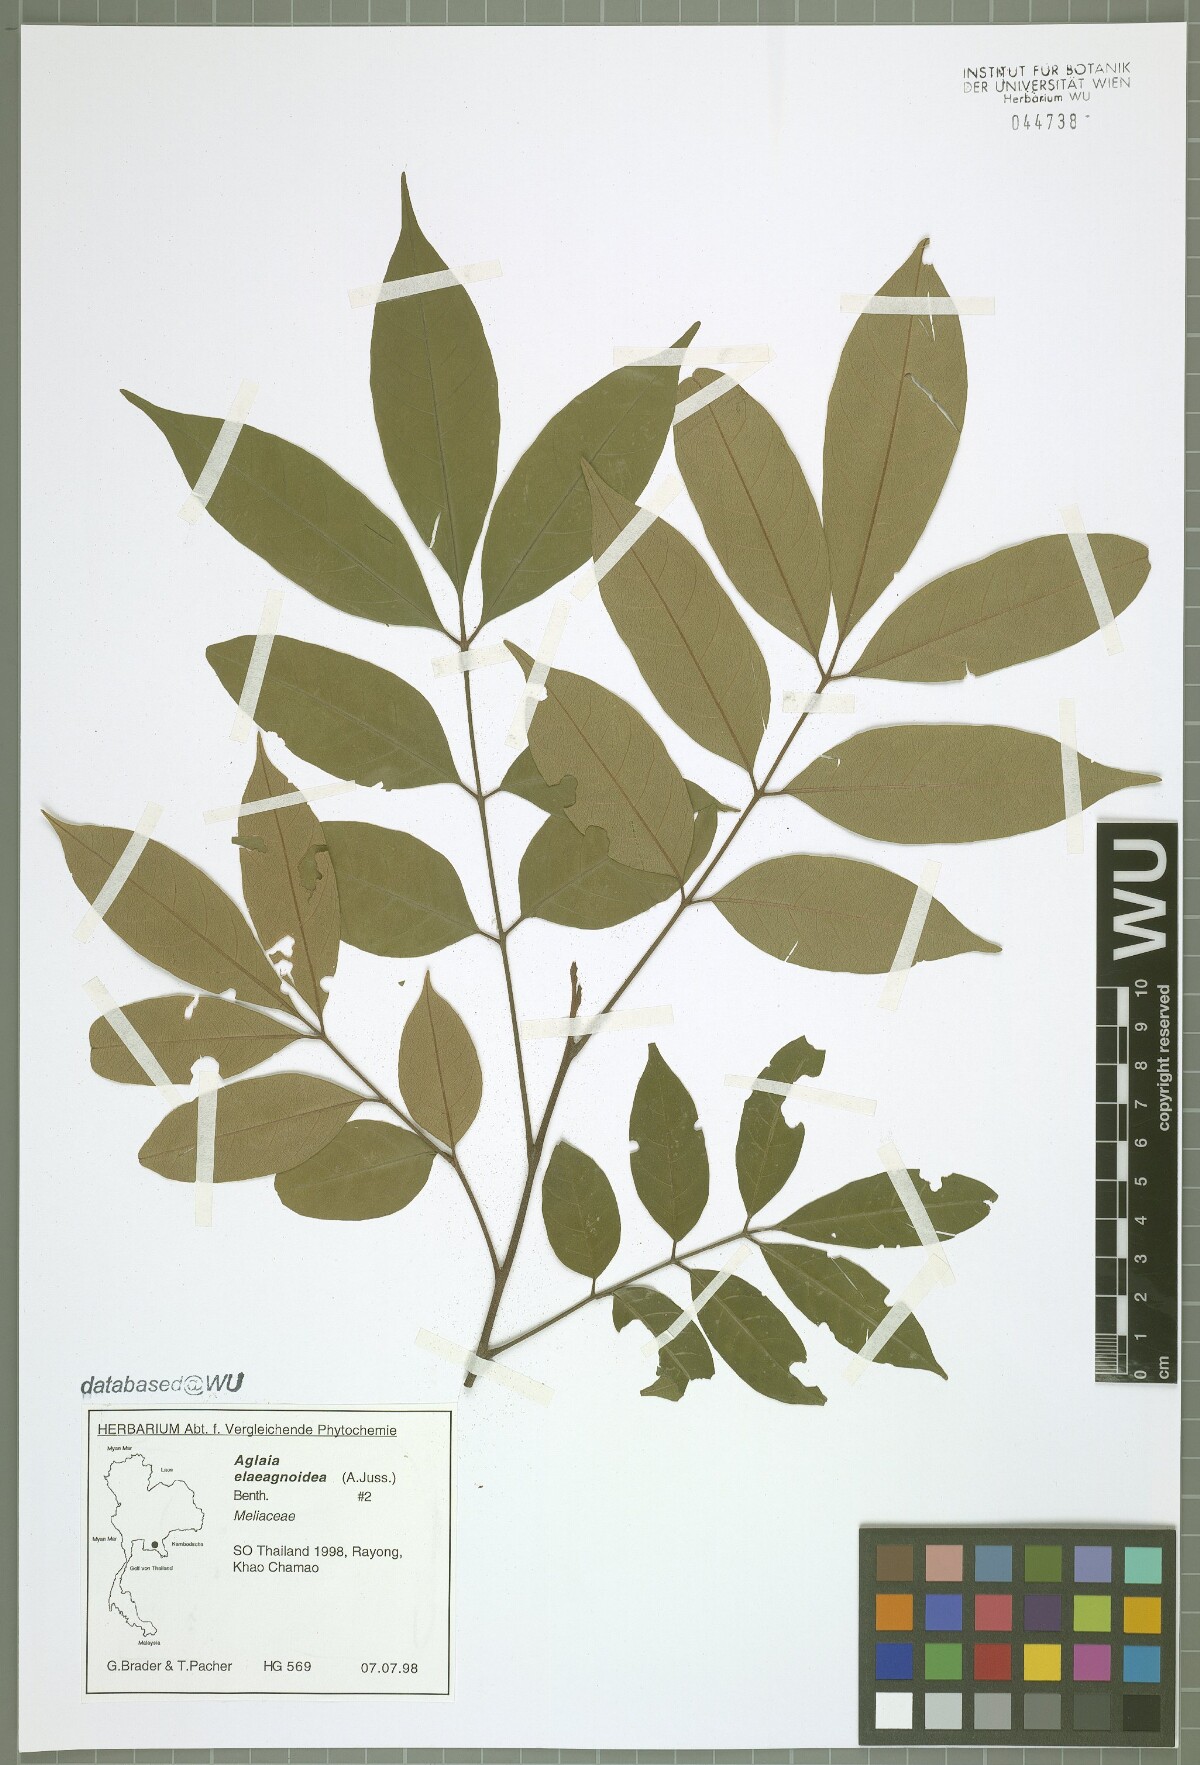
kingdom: Plantae
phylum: Tracheophyta
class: Magnoliopsida
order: Sapindales
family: Meliaceae
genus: Aglaia
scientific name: Aglaia elaeagnoidea
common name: Droopyleaf
